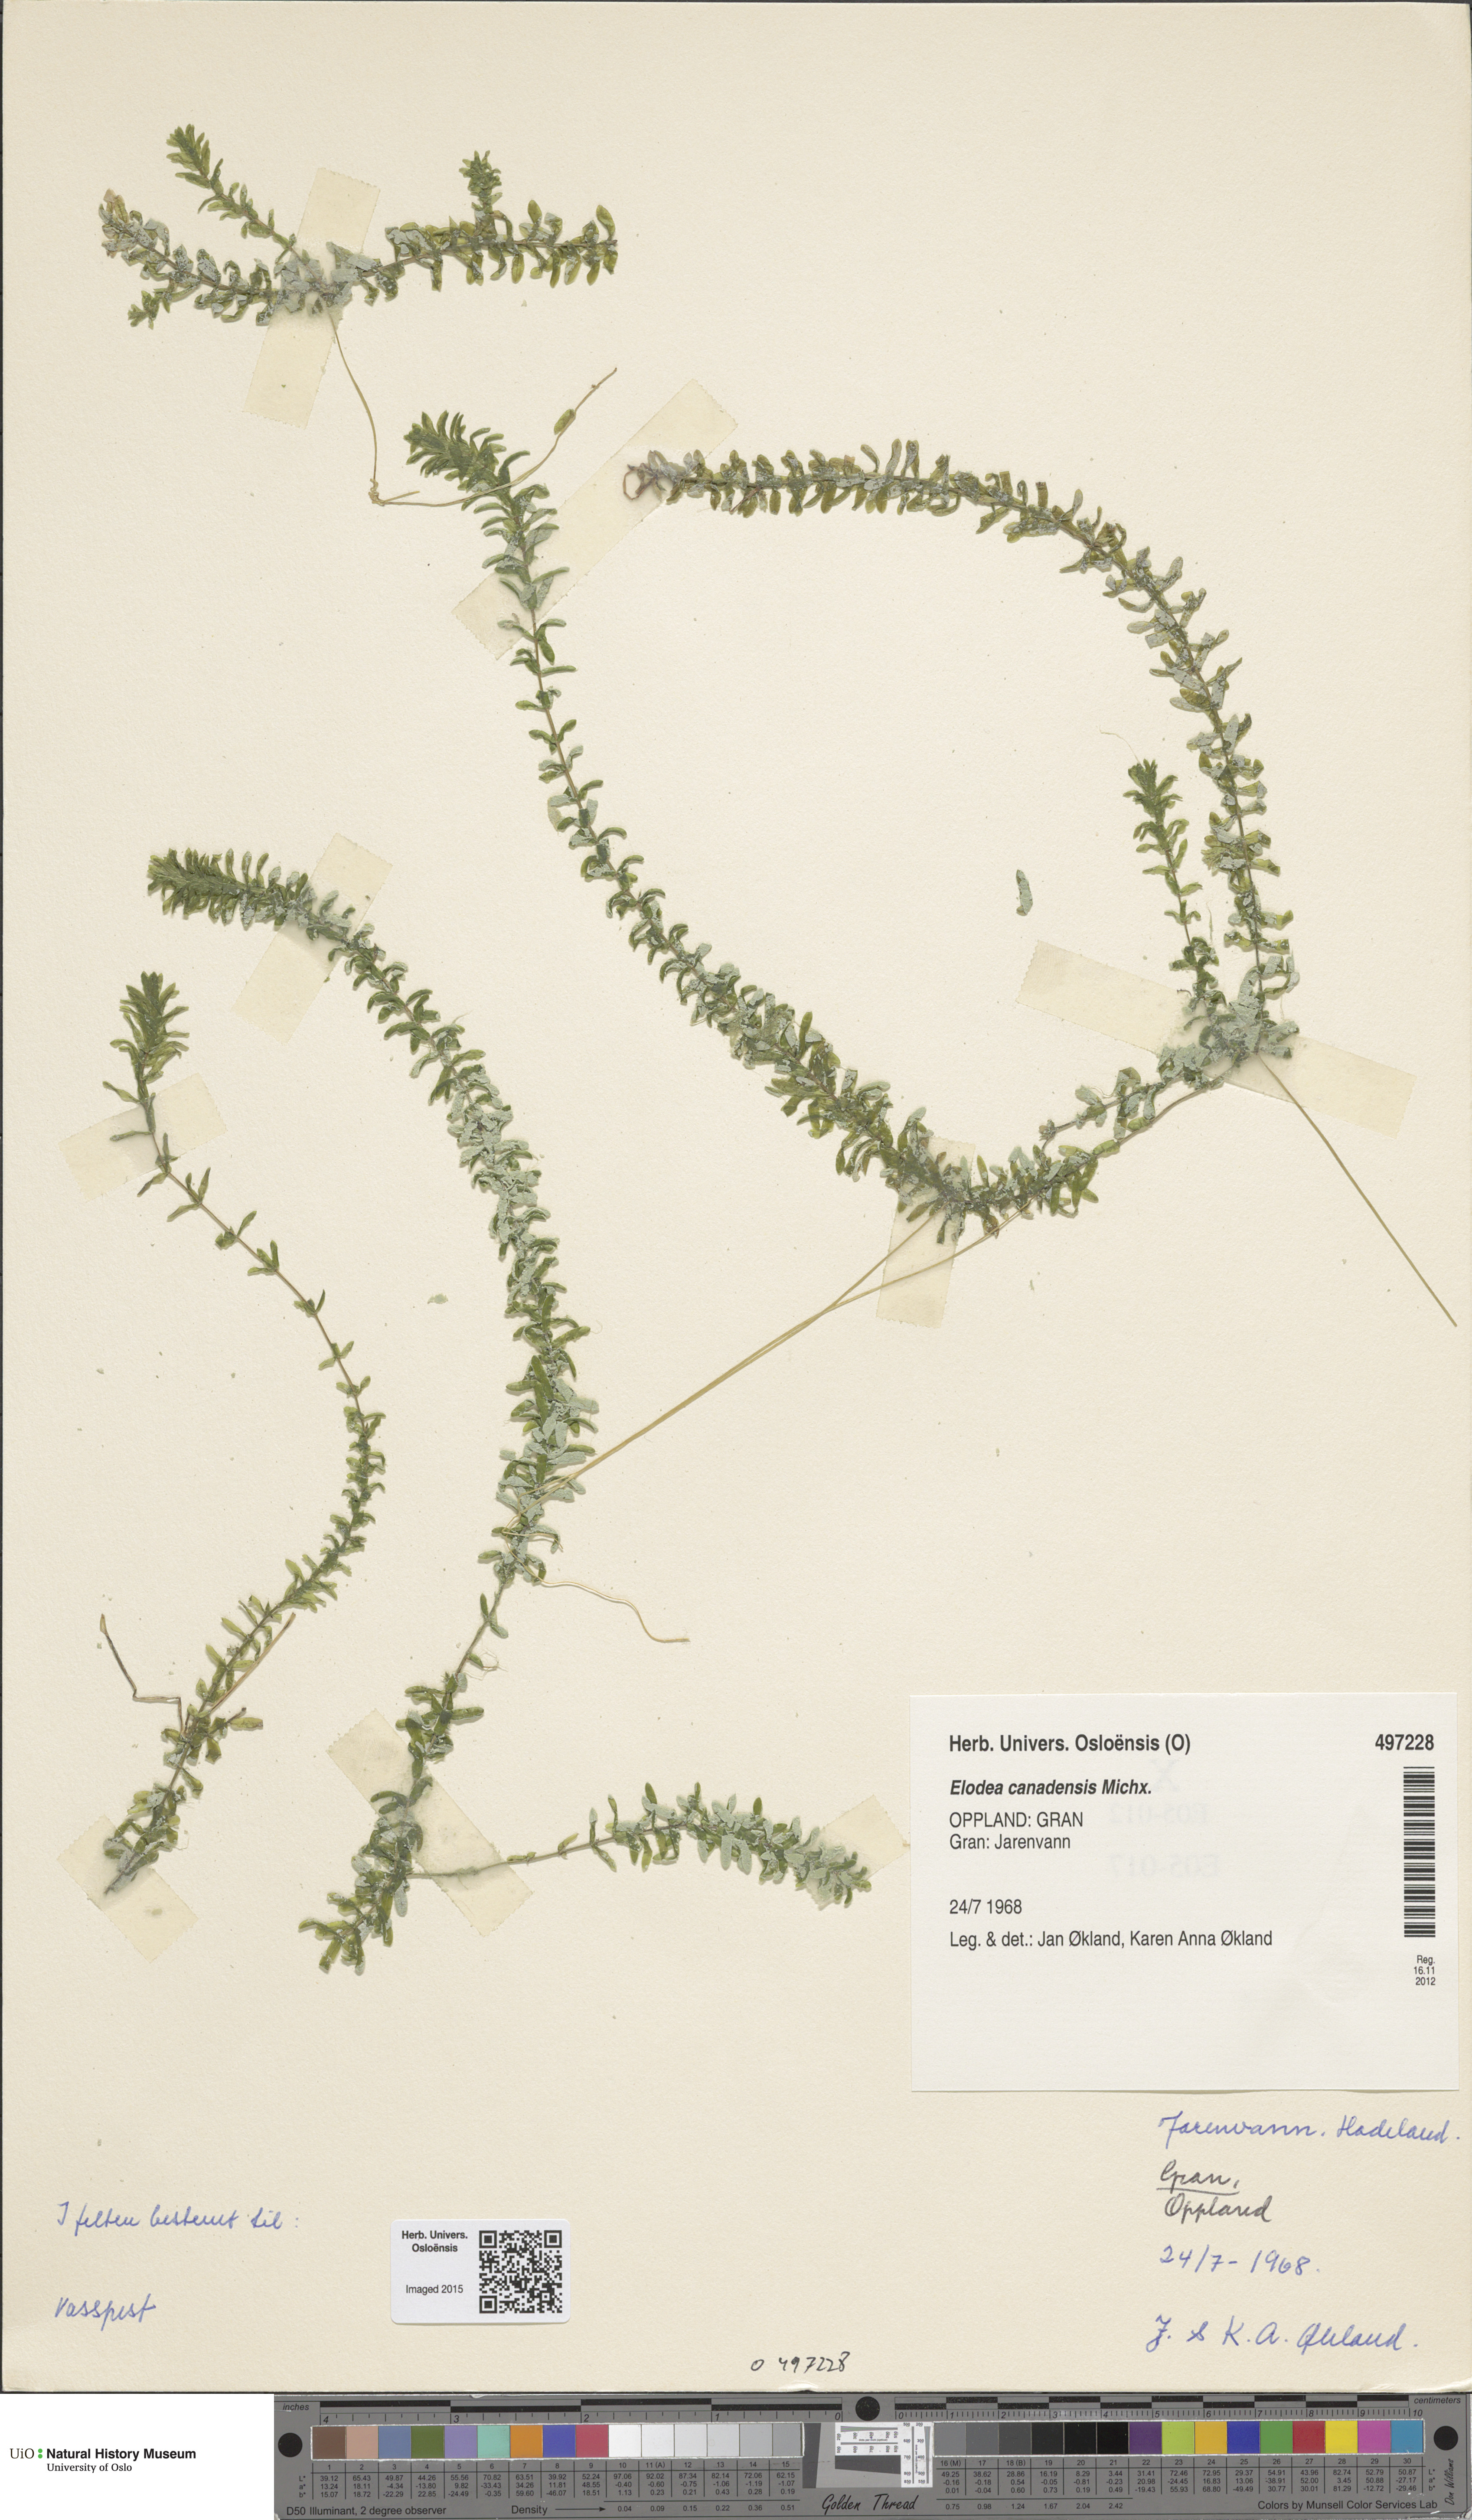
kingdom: Plantae
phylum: Tracheophyta
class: Liliopsida
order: Alismatales
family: Hydrocharitaceae
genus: Elodea
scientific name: Elodea canadensis
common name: Canadian waterweed
